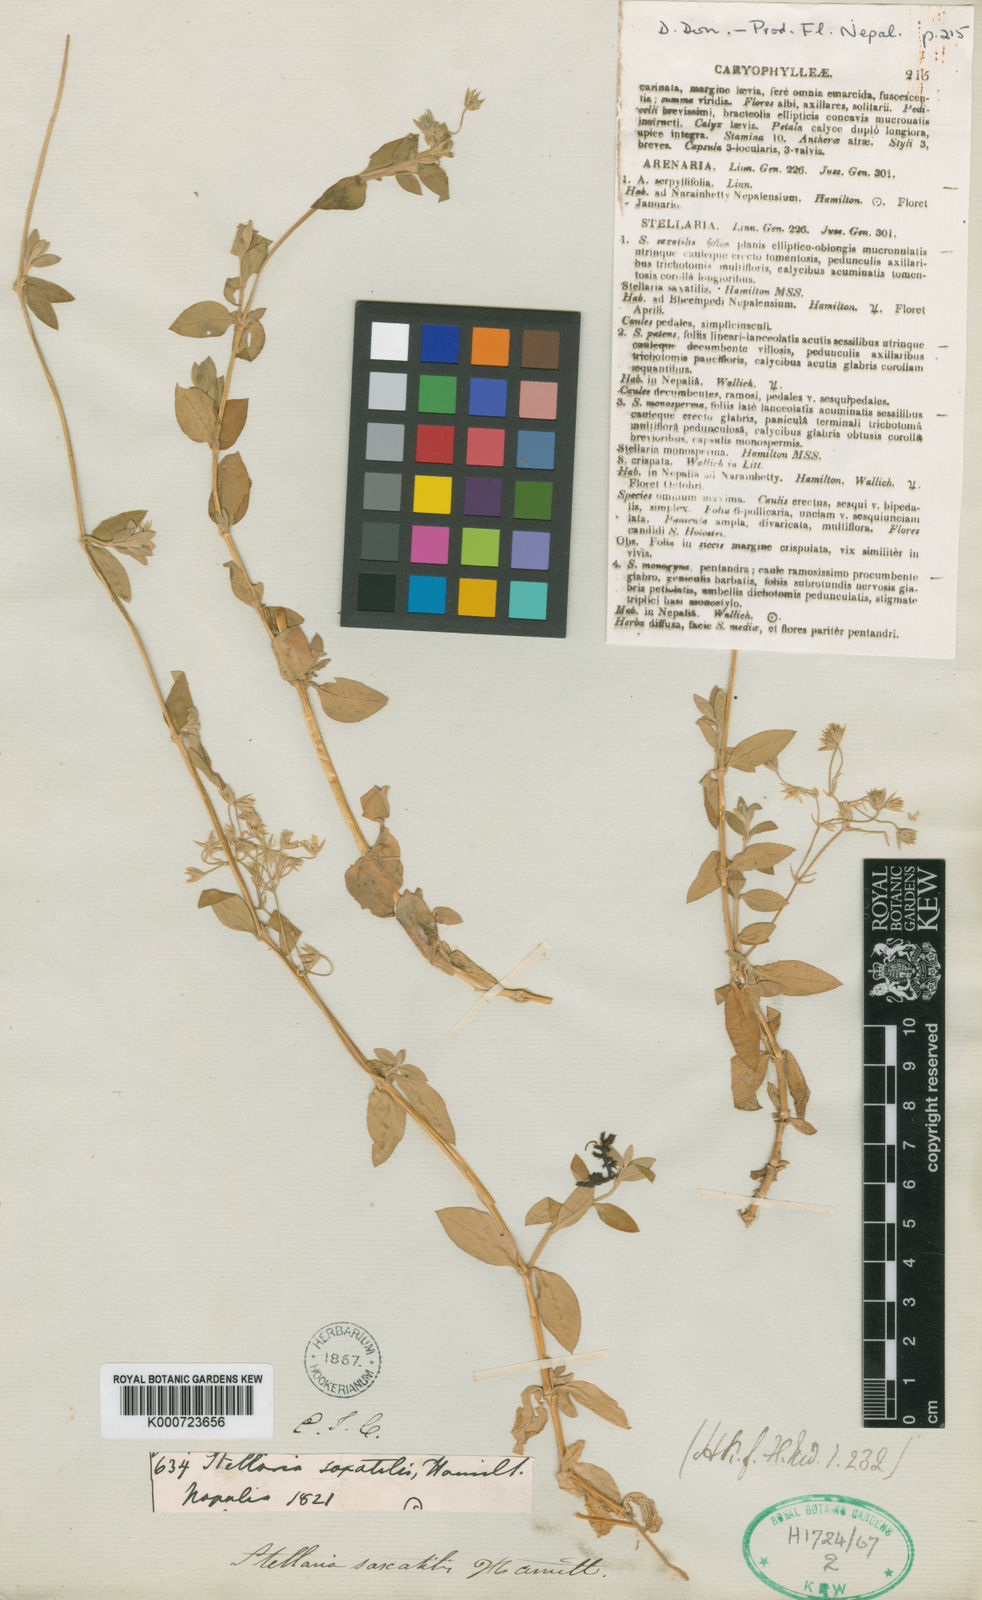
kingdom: Plantae
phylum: Tracheophyta
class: Magnoliopsida
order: Caryophyllales
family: Caryophyllaceae
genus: Stellaria
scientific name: Stellaria vestita
